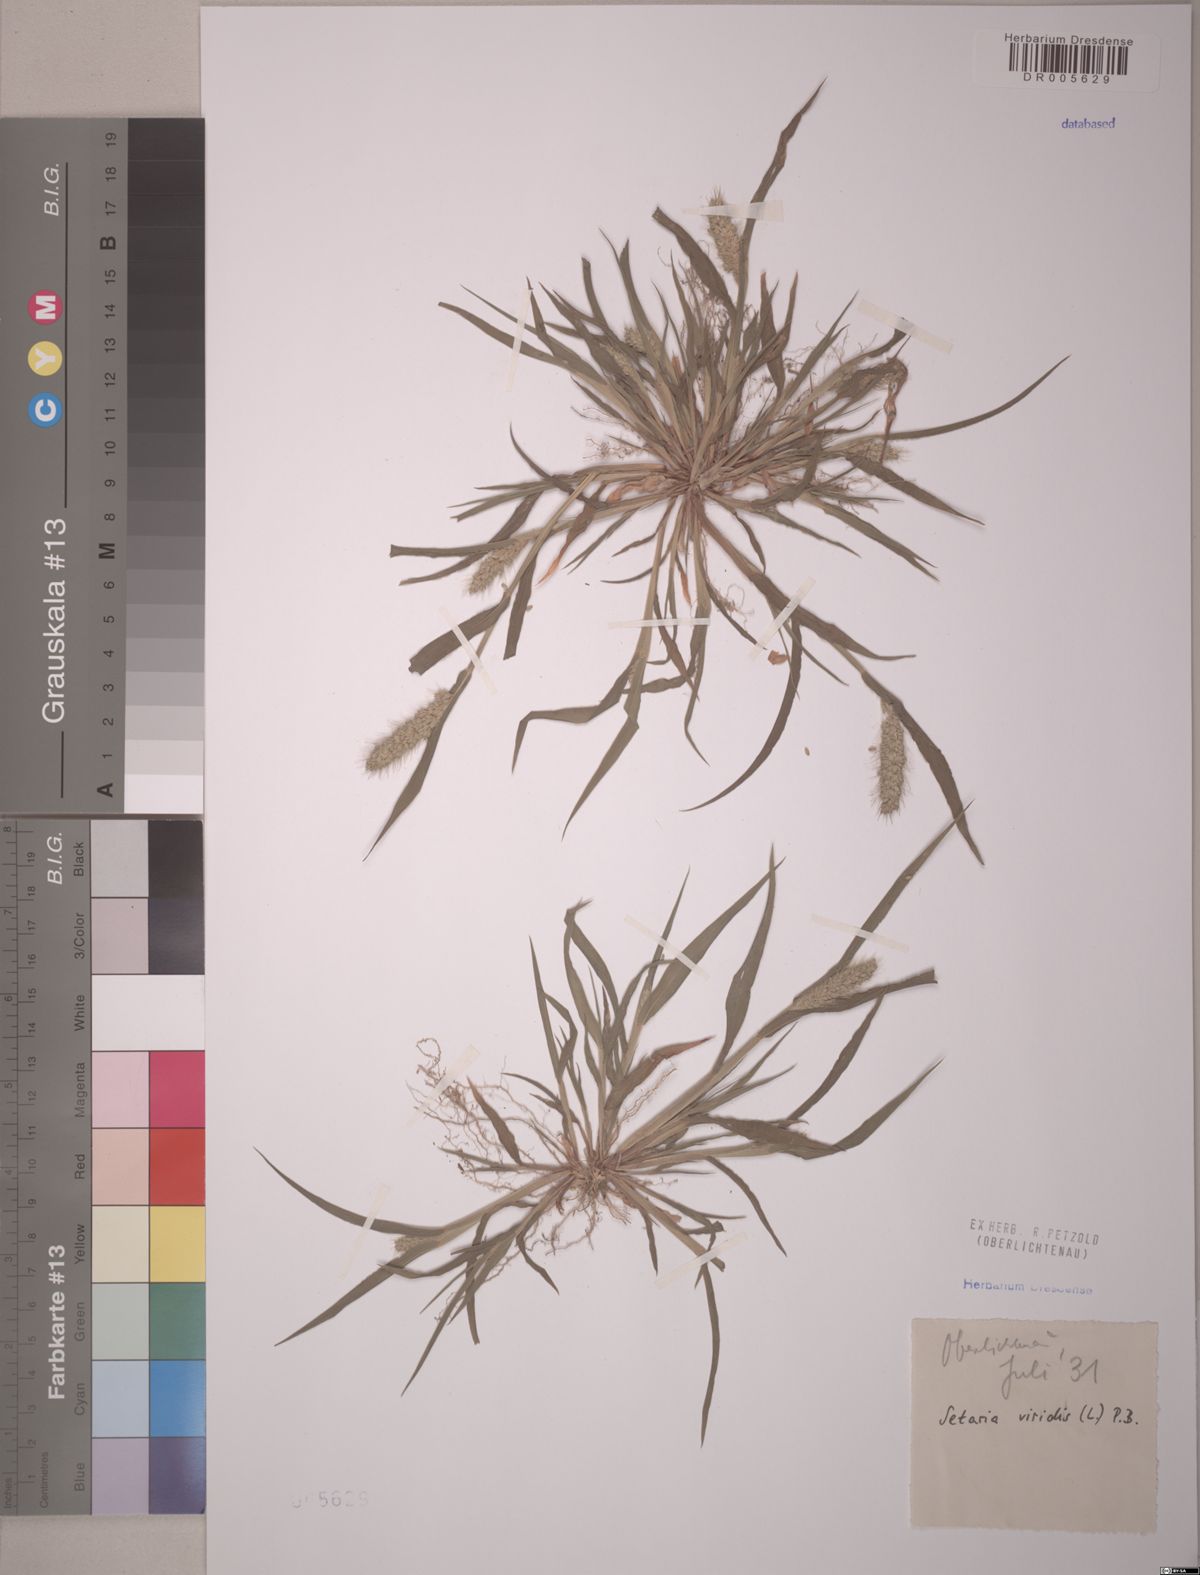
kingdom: Plantae
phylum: Tracheophyta
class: Liliopsida
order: Poales
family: Poaceae
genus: Setaria
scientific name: Setaria viridis
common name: Green bristlegrass
